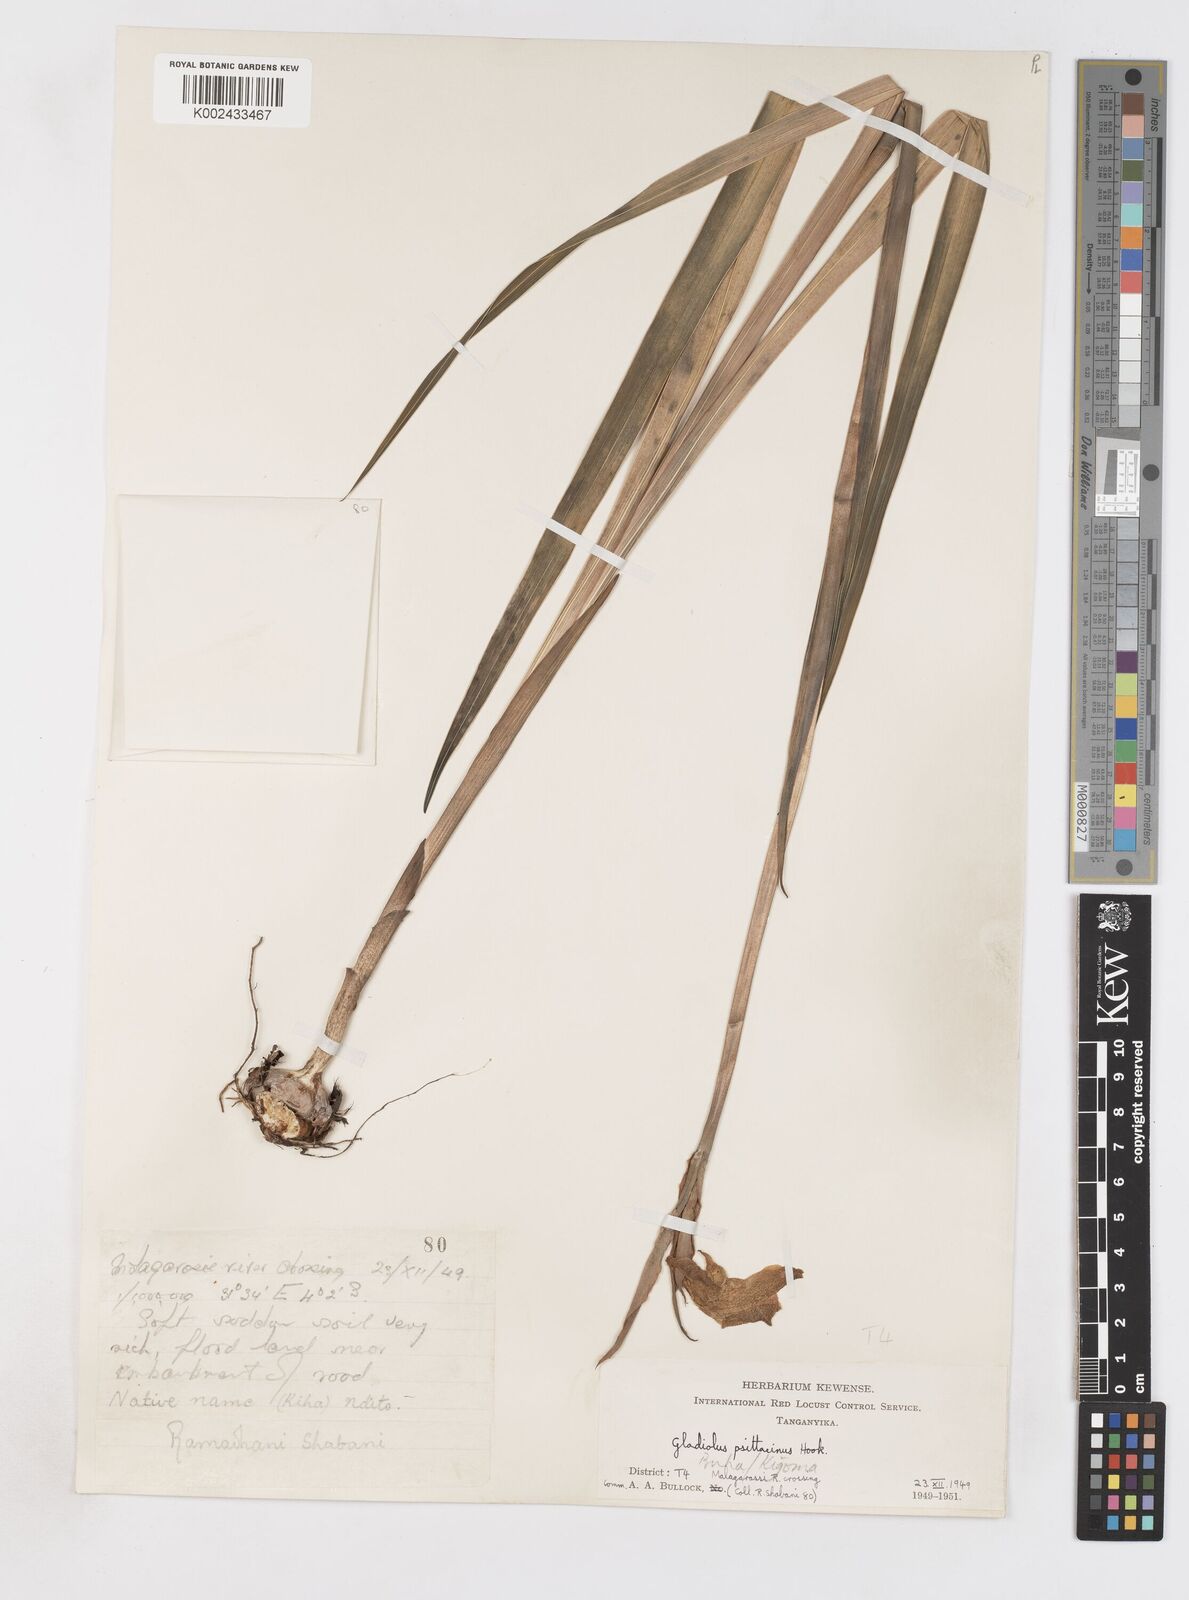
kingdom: Plantae
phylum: Tracheophyta
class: Liliopsida
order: Asparagales
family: Iridaceae
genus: Gladiolus
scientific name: Gladiolus dalenii
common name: Cornflag
